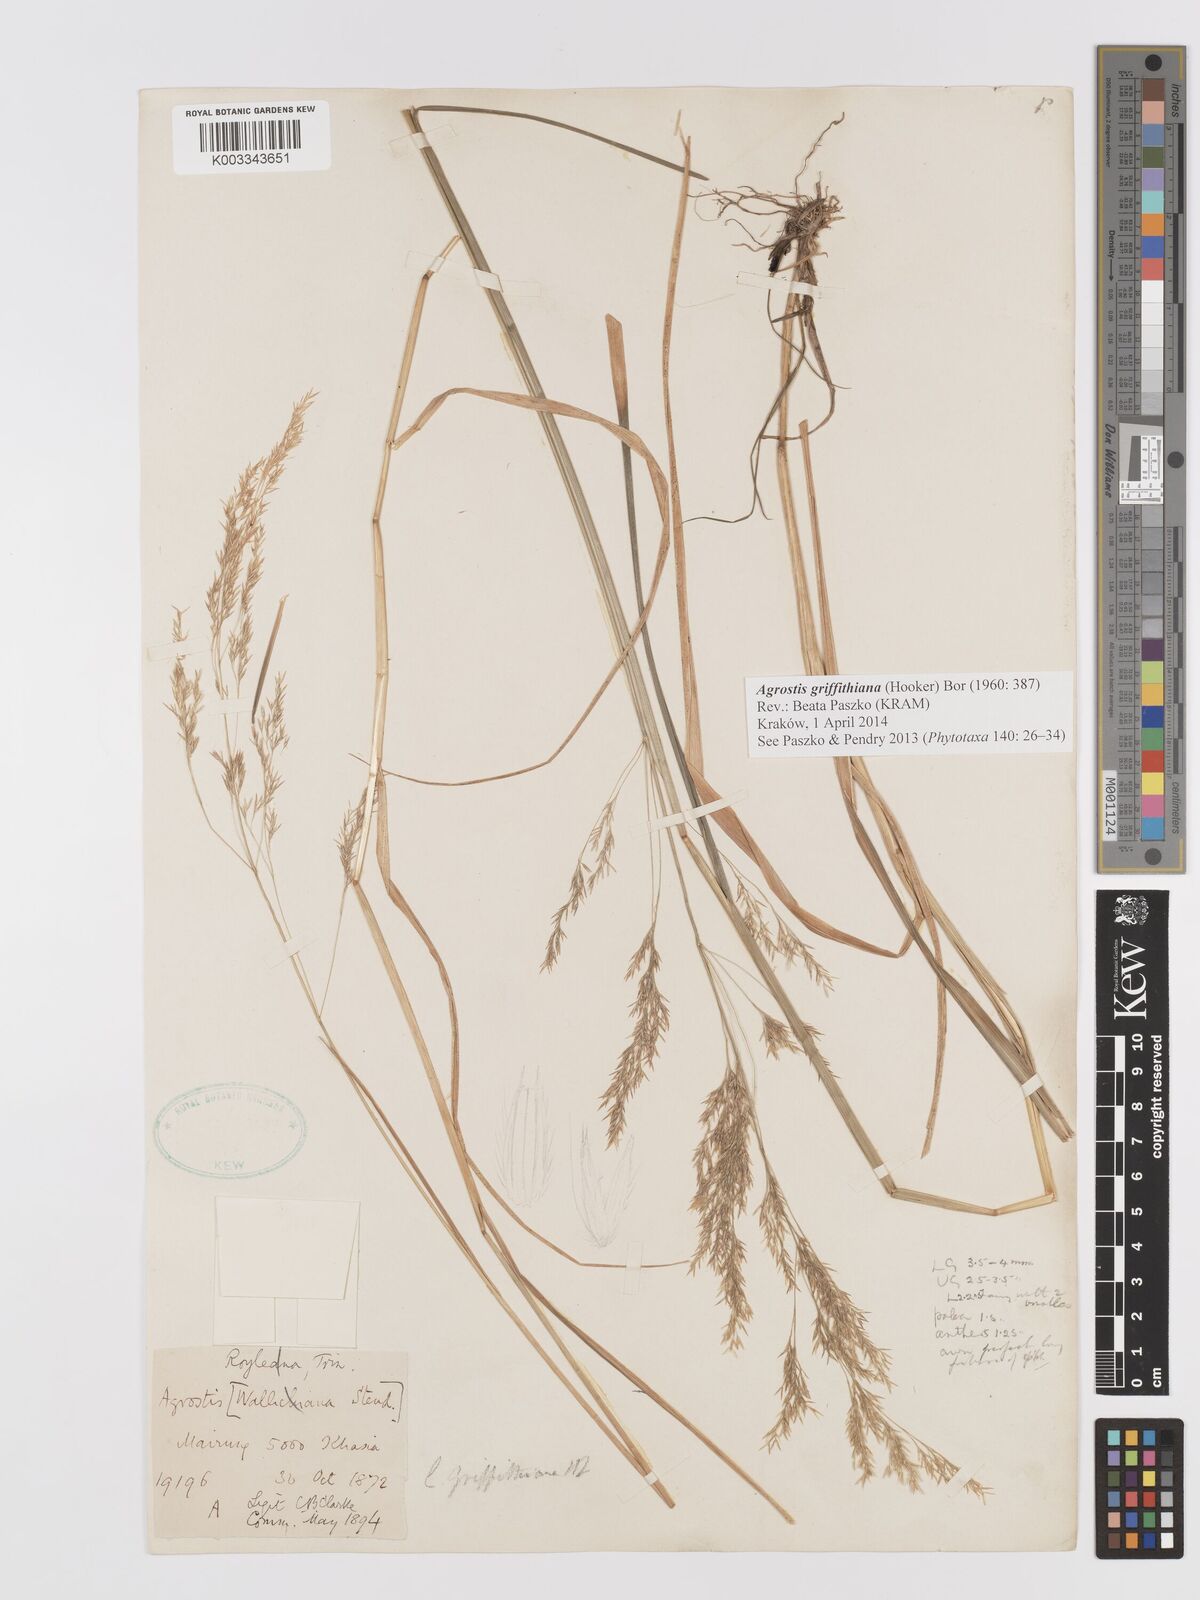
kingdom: Plantae
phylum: Tracheophyta
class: Liliopsida
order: Poales
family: Poaceae
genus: Agrostis
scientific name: Agrostis griffithiana
